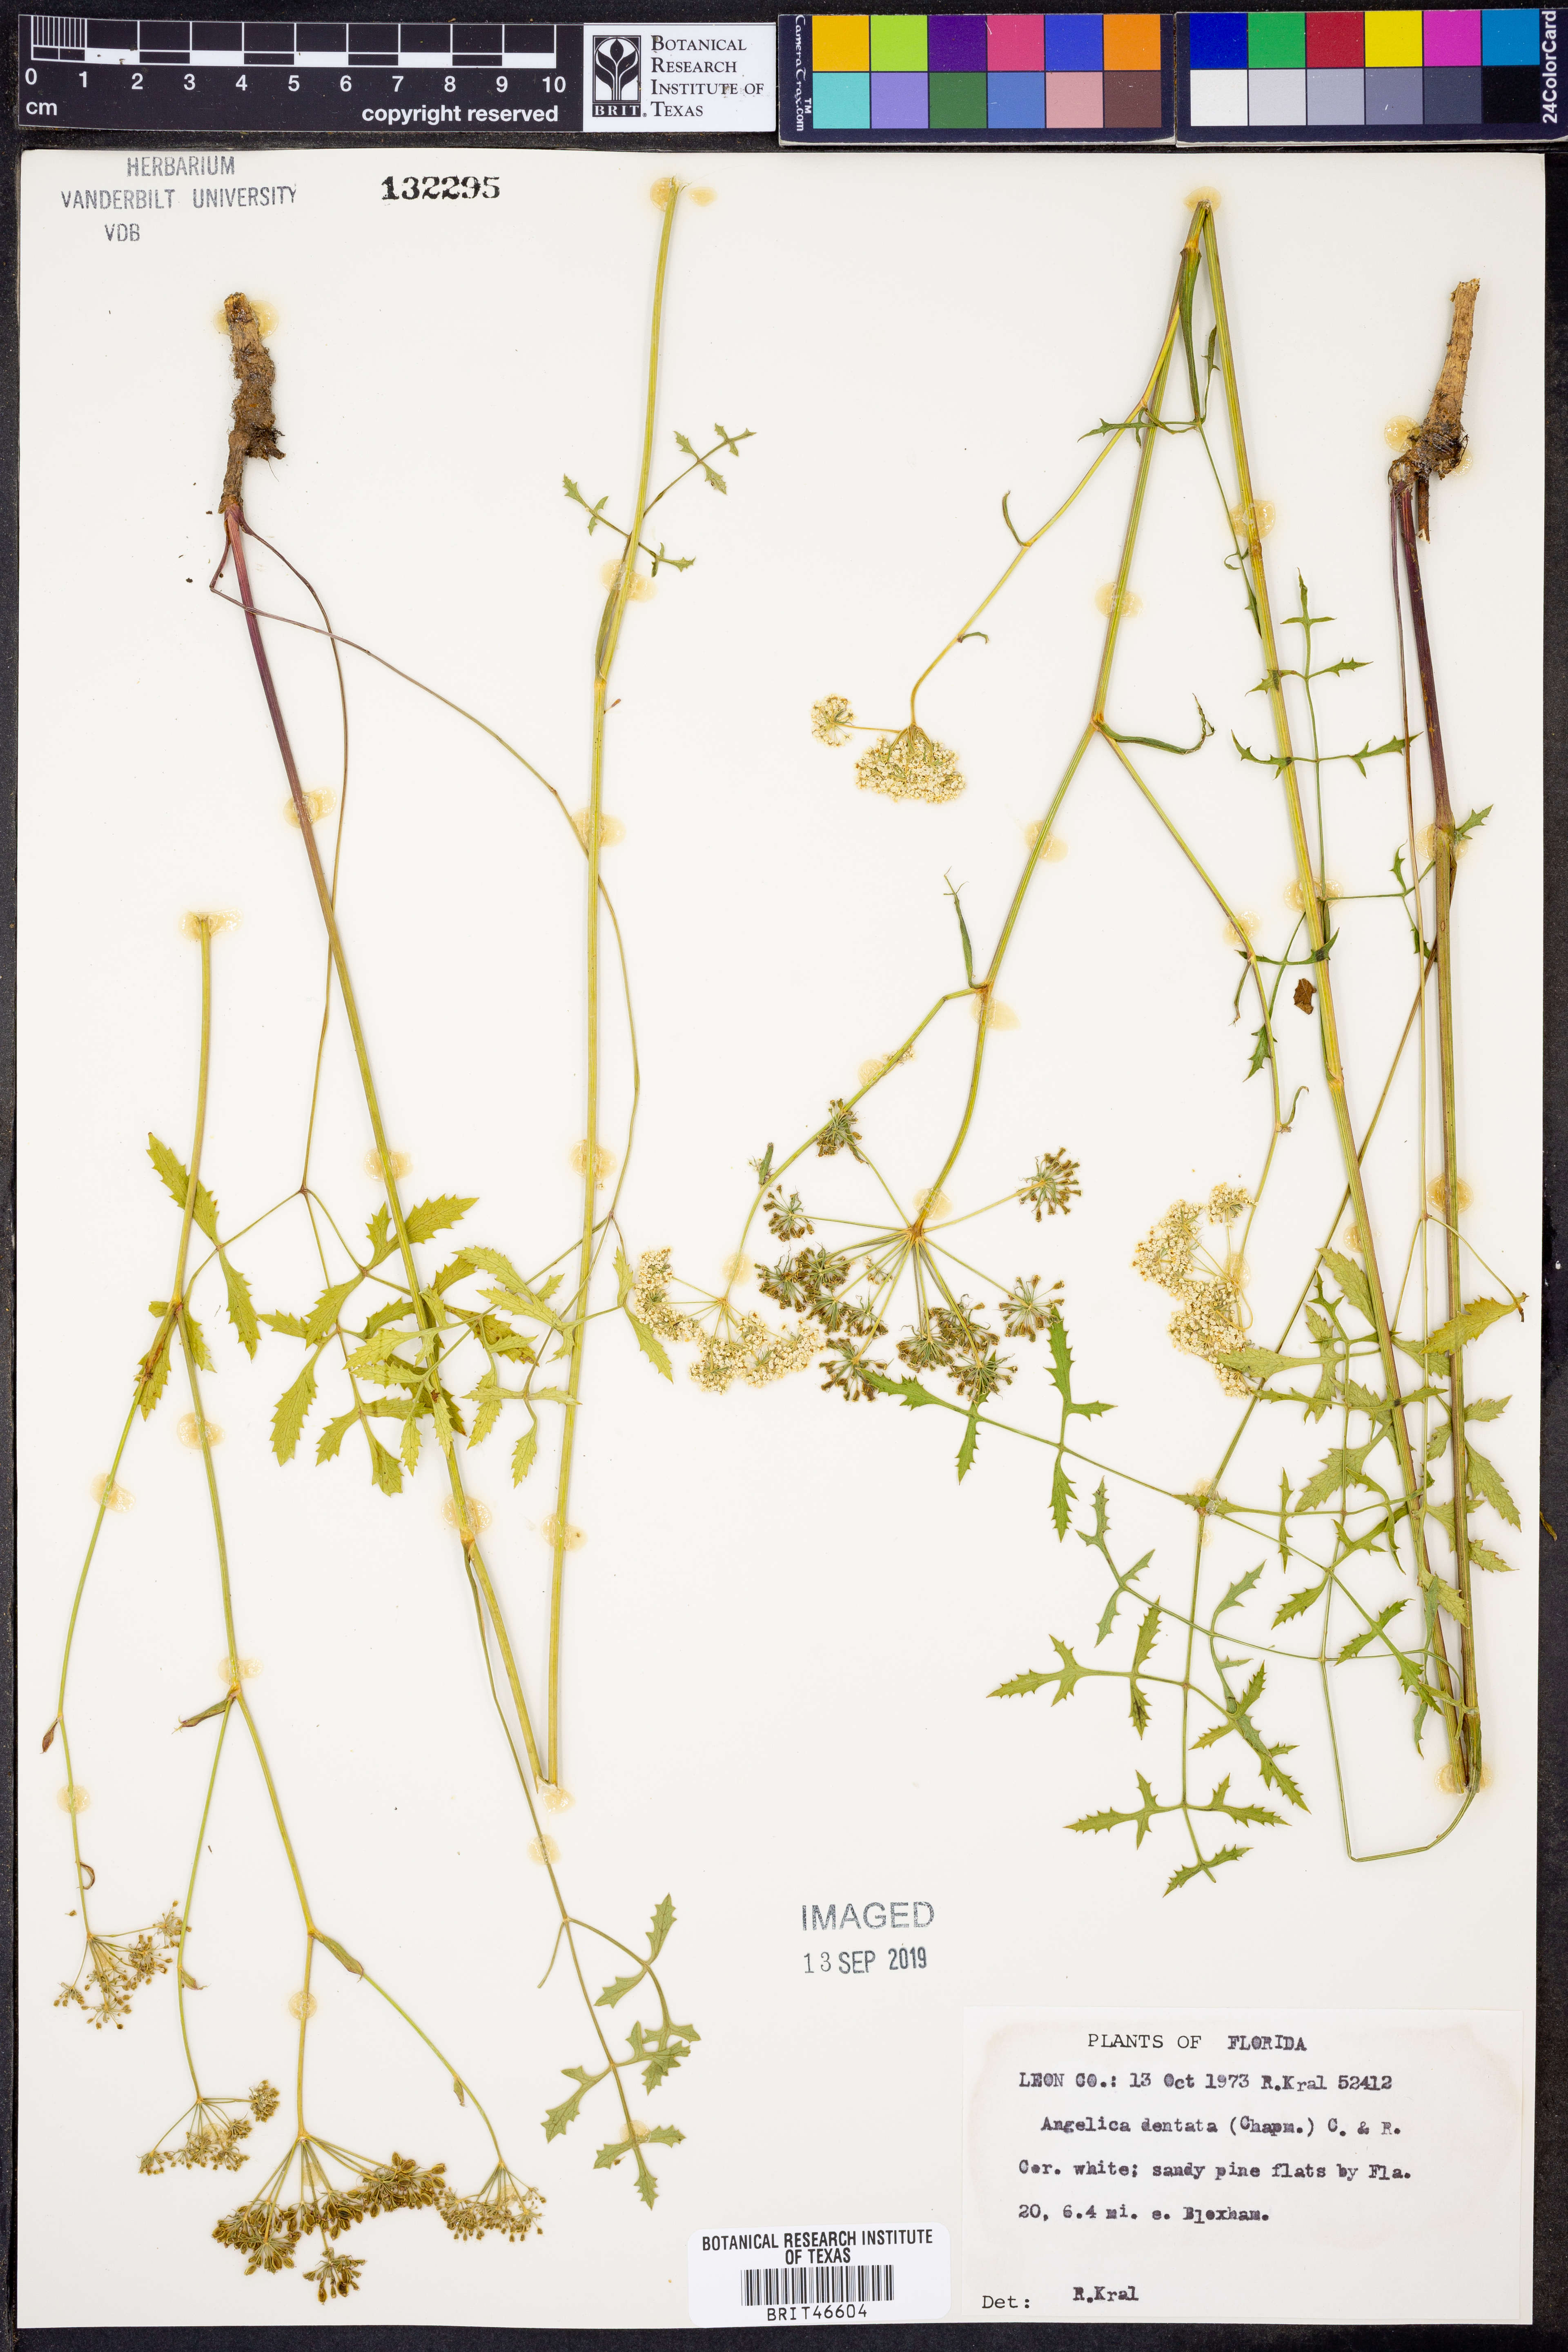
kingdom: Plantae
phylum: Tracheophyta
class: Magnoliopsida
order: Apiales
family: Apiaceae
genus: Angelica
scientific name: Angelica venenosa
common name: Hairy angelica
